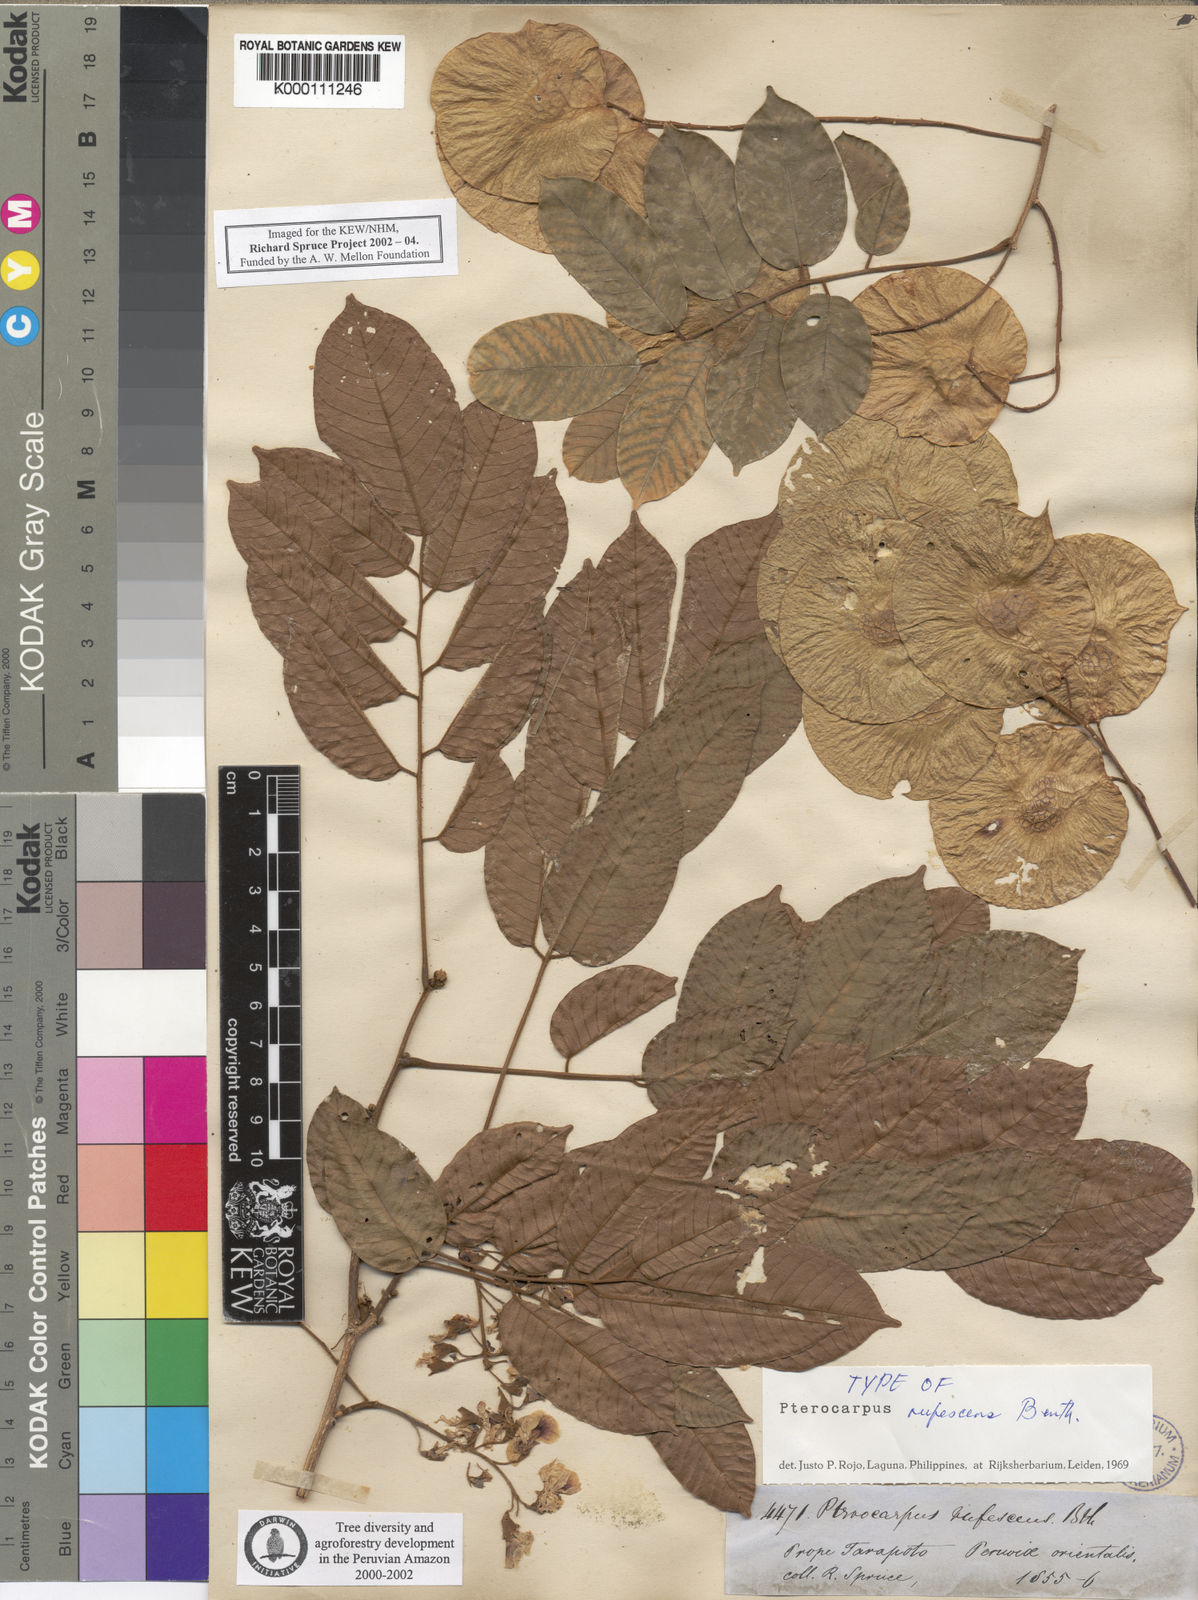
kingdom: Plantae
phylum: Tracheophyta
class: Magnoliopsida
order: Fabales
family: Fabaceae
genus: Pterocarpus
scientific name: Pterocarpus rohrii
